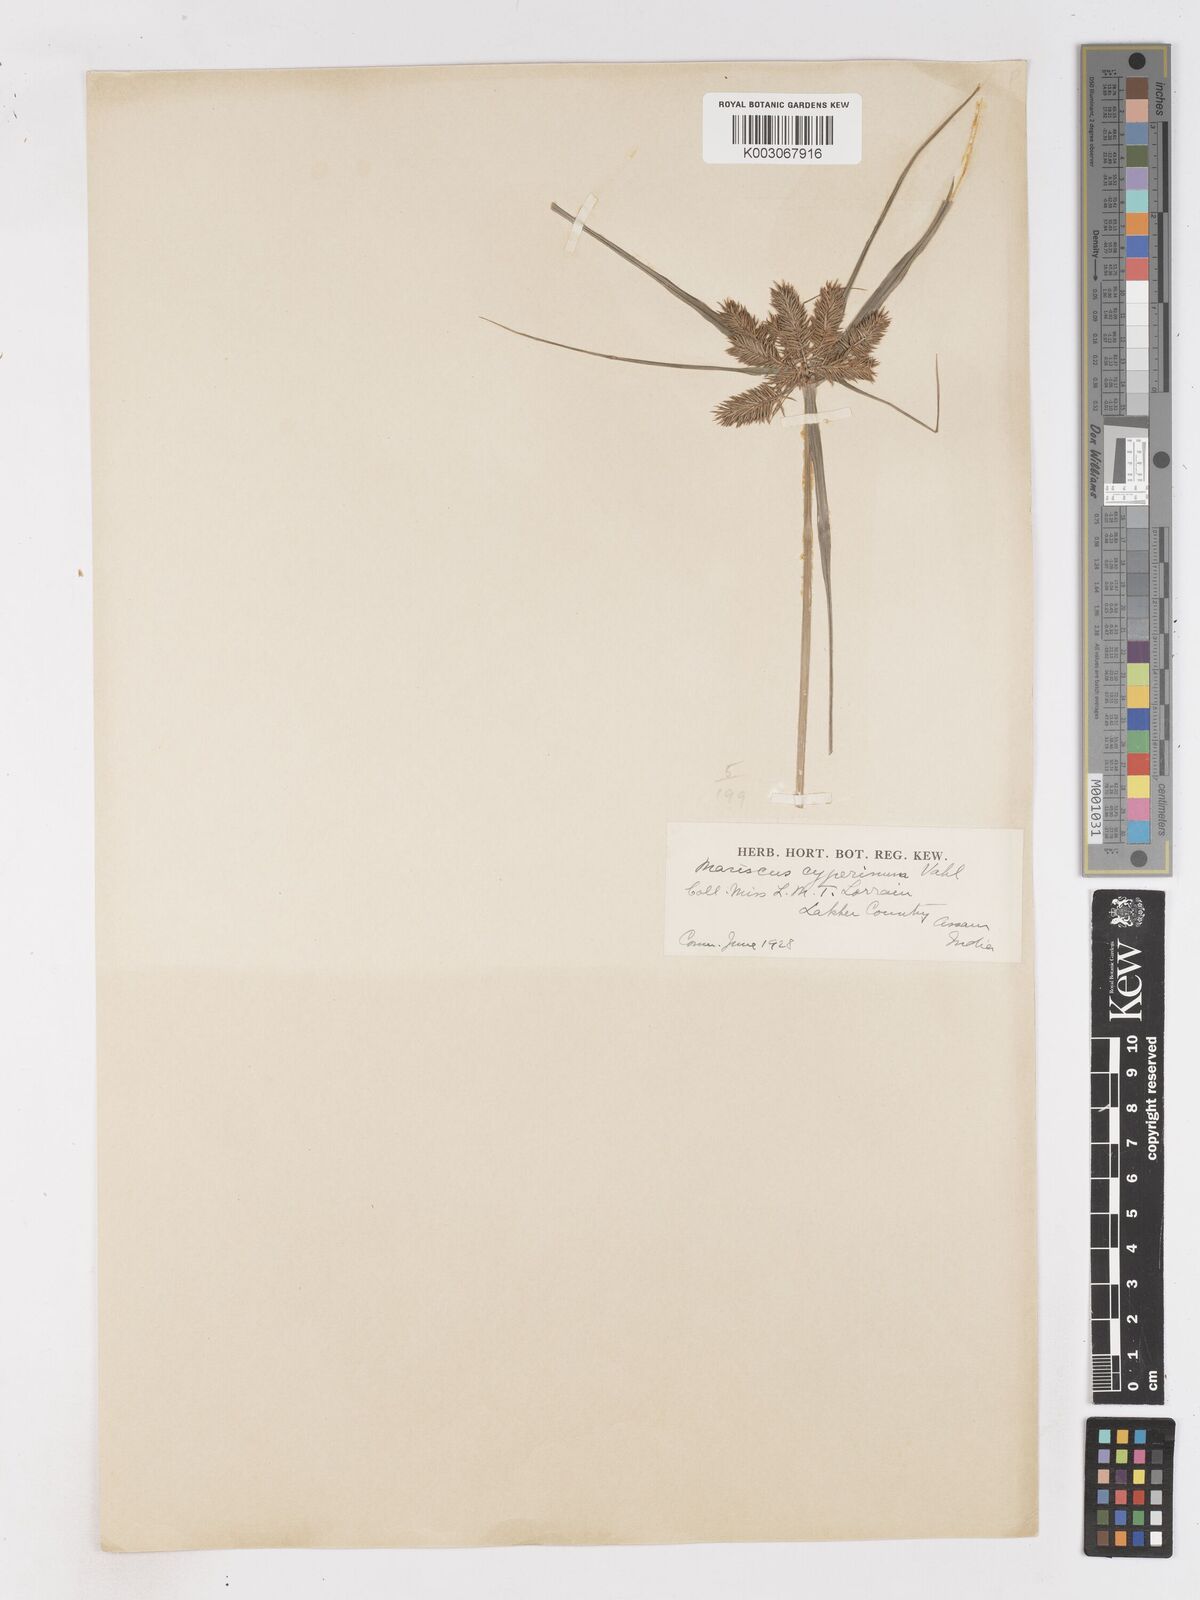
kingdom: Plantae
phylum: Tracheophyta
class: Liliopsida
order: Poales
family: Cyperaceae
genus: Cyperus
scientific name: Cyperus cyperinus
